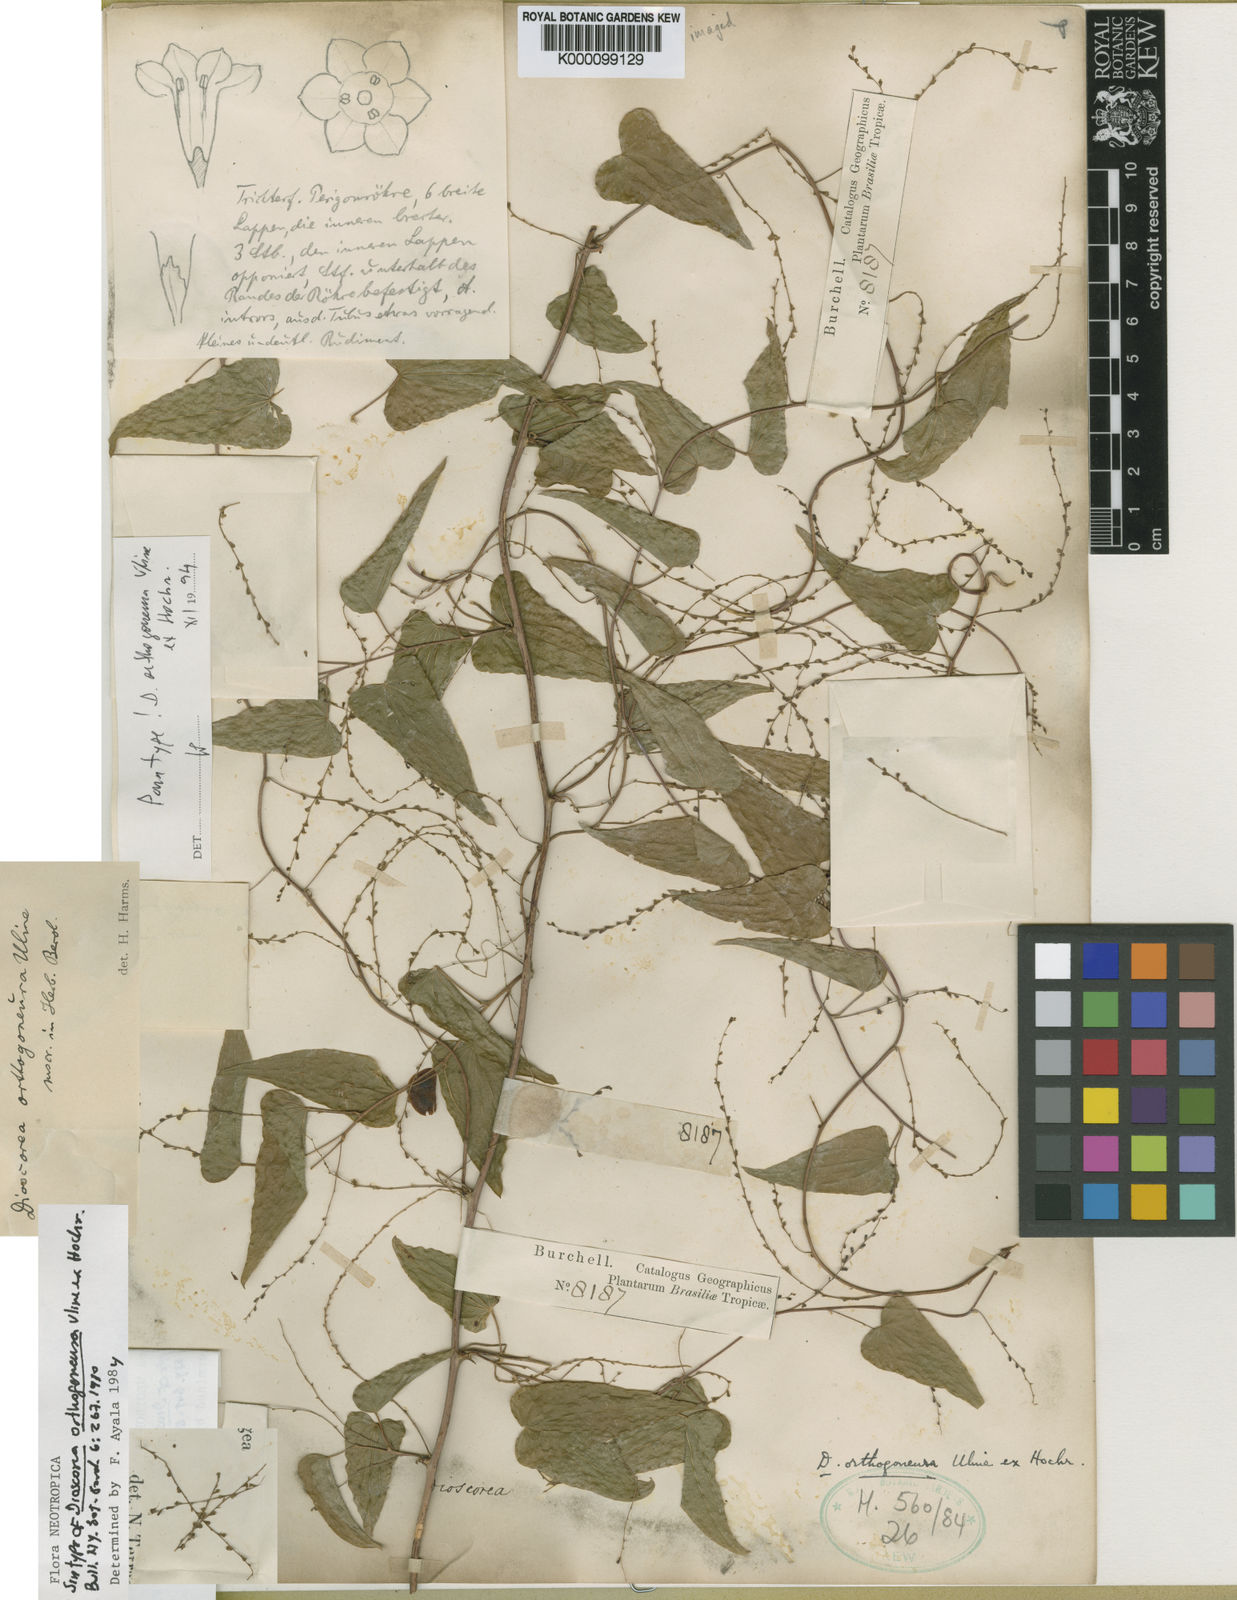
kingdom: Plantae
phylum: Tracheophyta
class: Liliopsida
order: Dioscoreales
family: Dioscoreaceae
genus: Dioscorea
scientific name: Dioscorea orthogoneura
